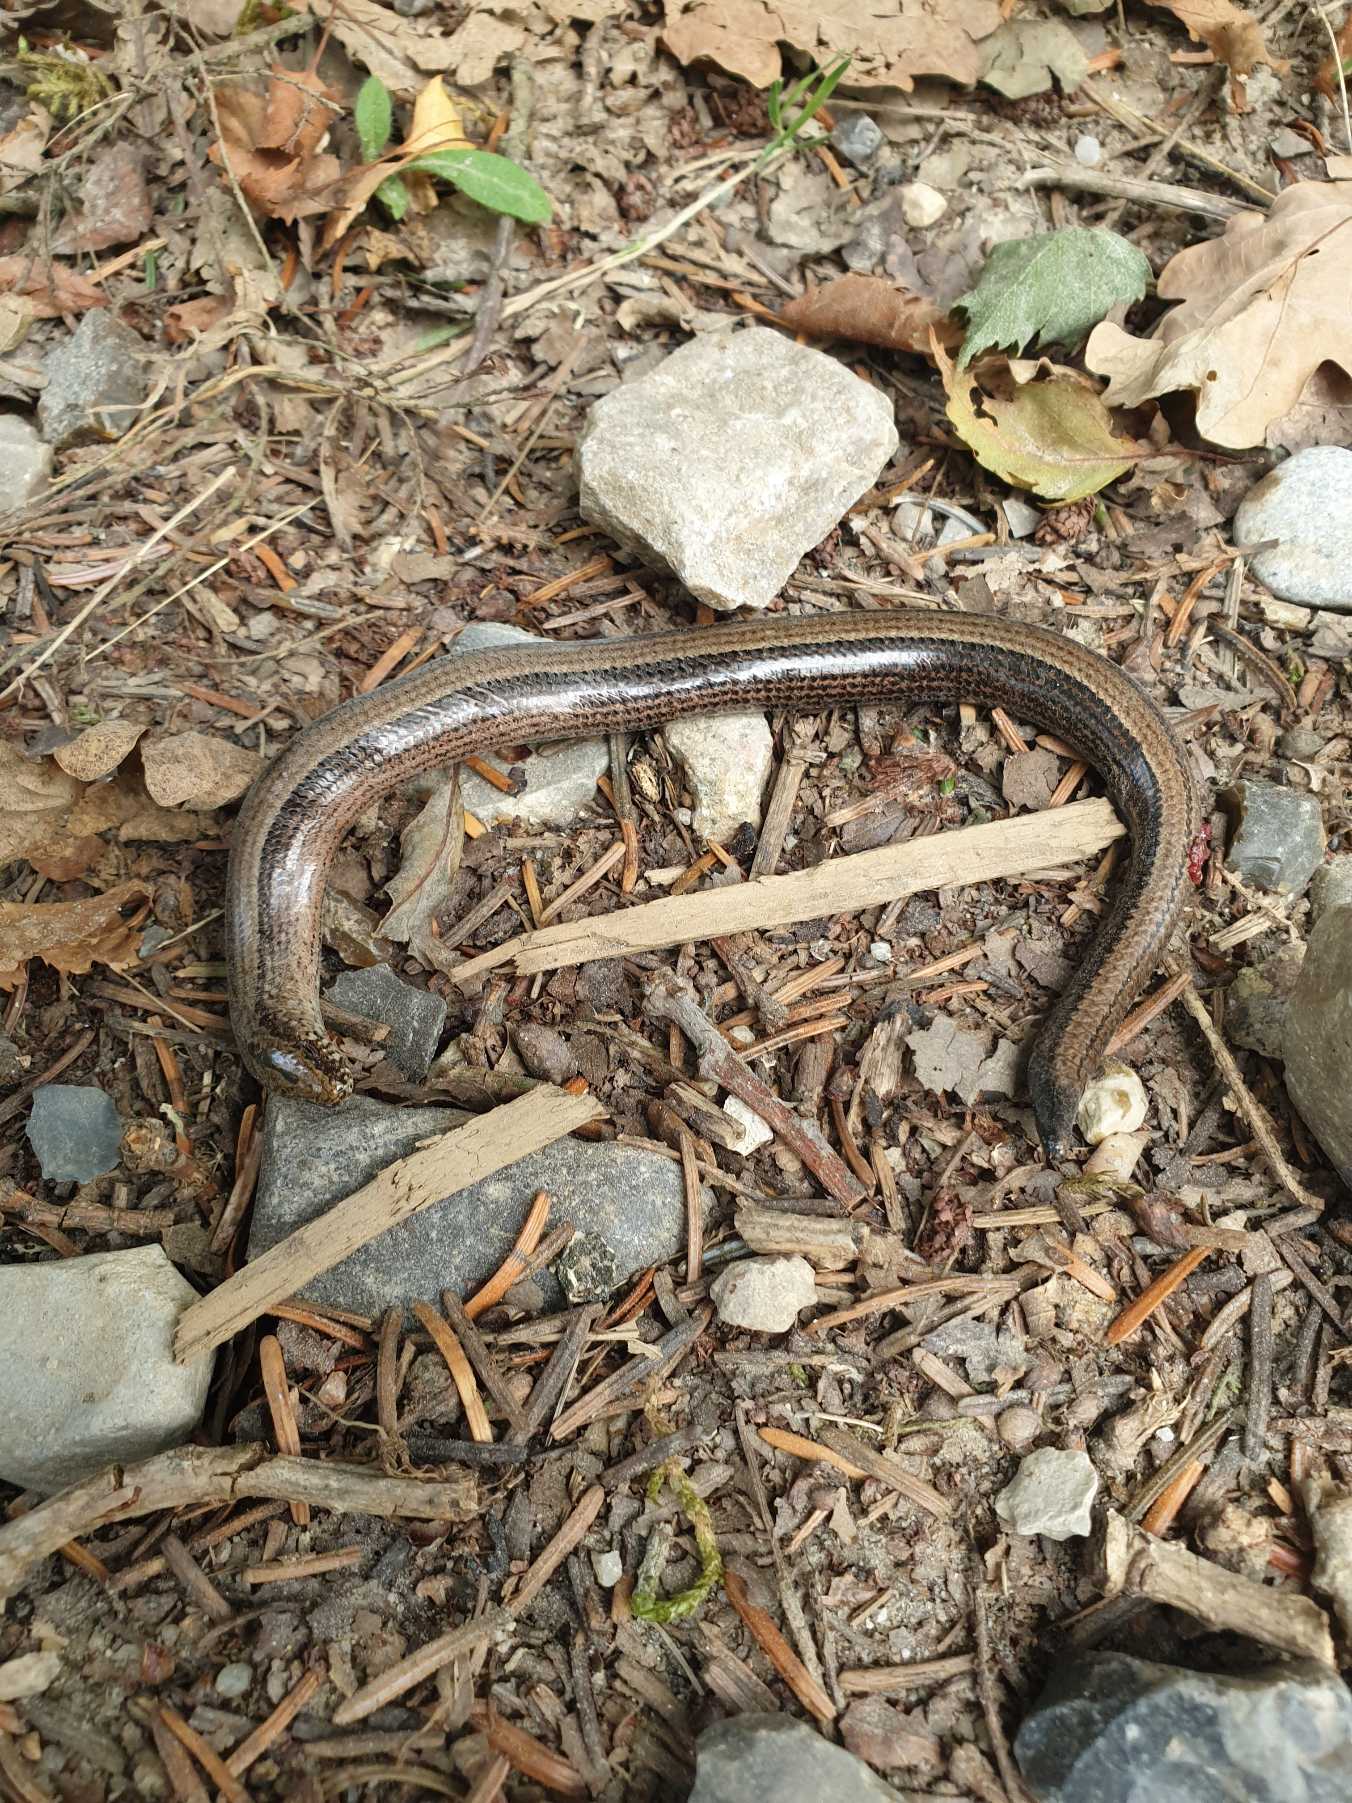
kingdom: Animalia
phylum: Chordata
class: Squamata
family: Anguidae
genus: Anguis
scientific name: Anguis fragilis
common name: Stålorm
